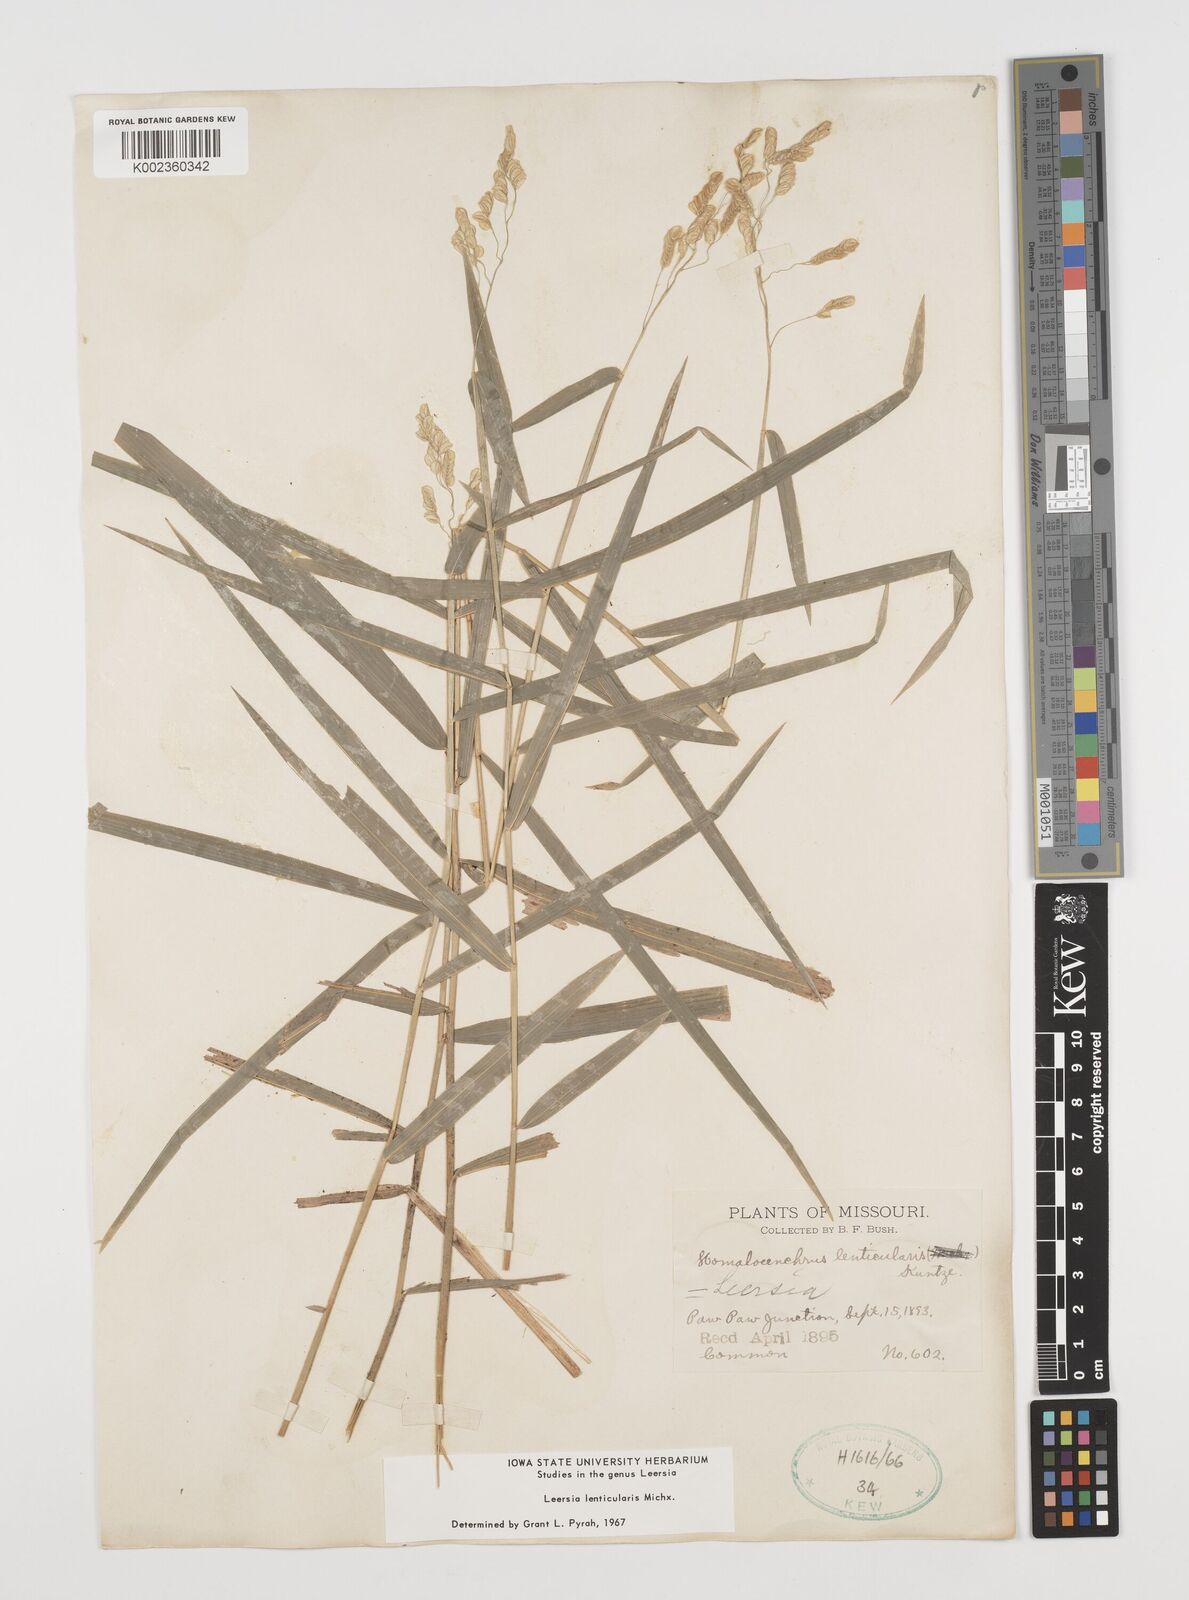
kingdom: Plantae
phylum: Tracheophyta
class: Liliopsida
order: Poales
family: Poaceae
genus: Leersia
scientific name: Leersia lenticularis
